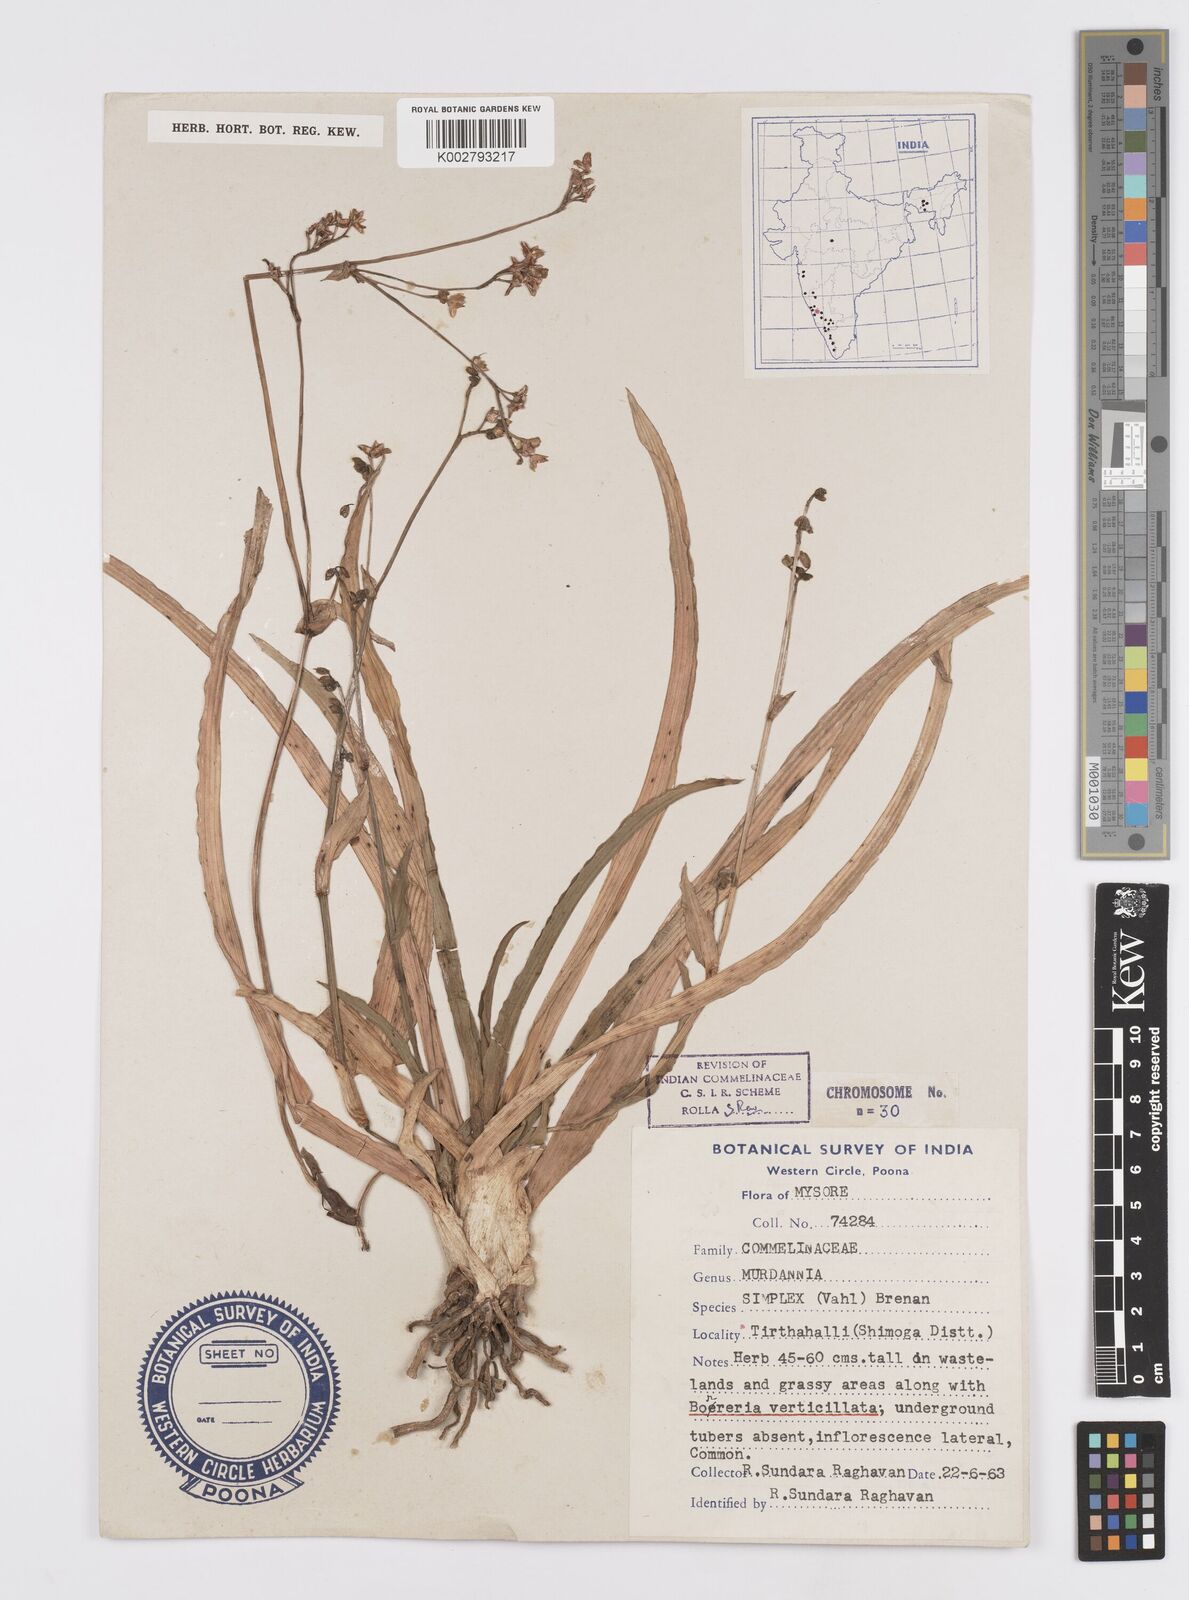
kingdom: Plantae
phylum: Tracheophyta
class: Liliopsida
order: Commelinales
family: Commelinaceae
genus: Murdannia
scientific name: Murdannia simplex
